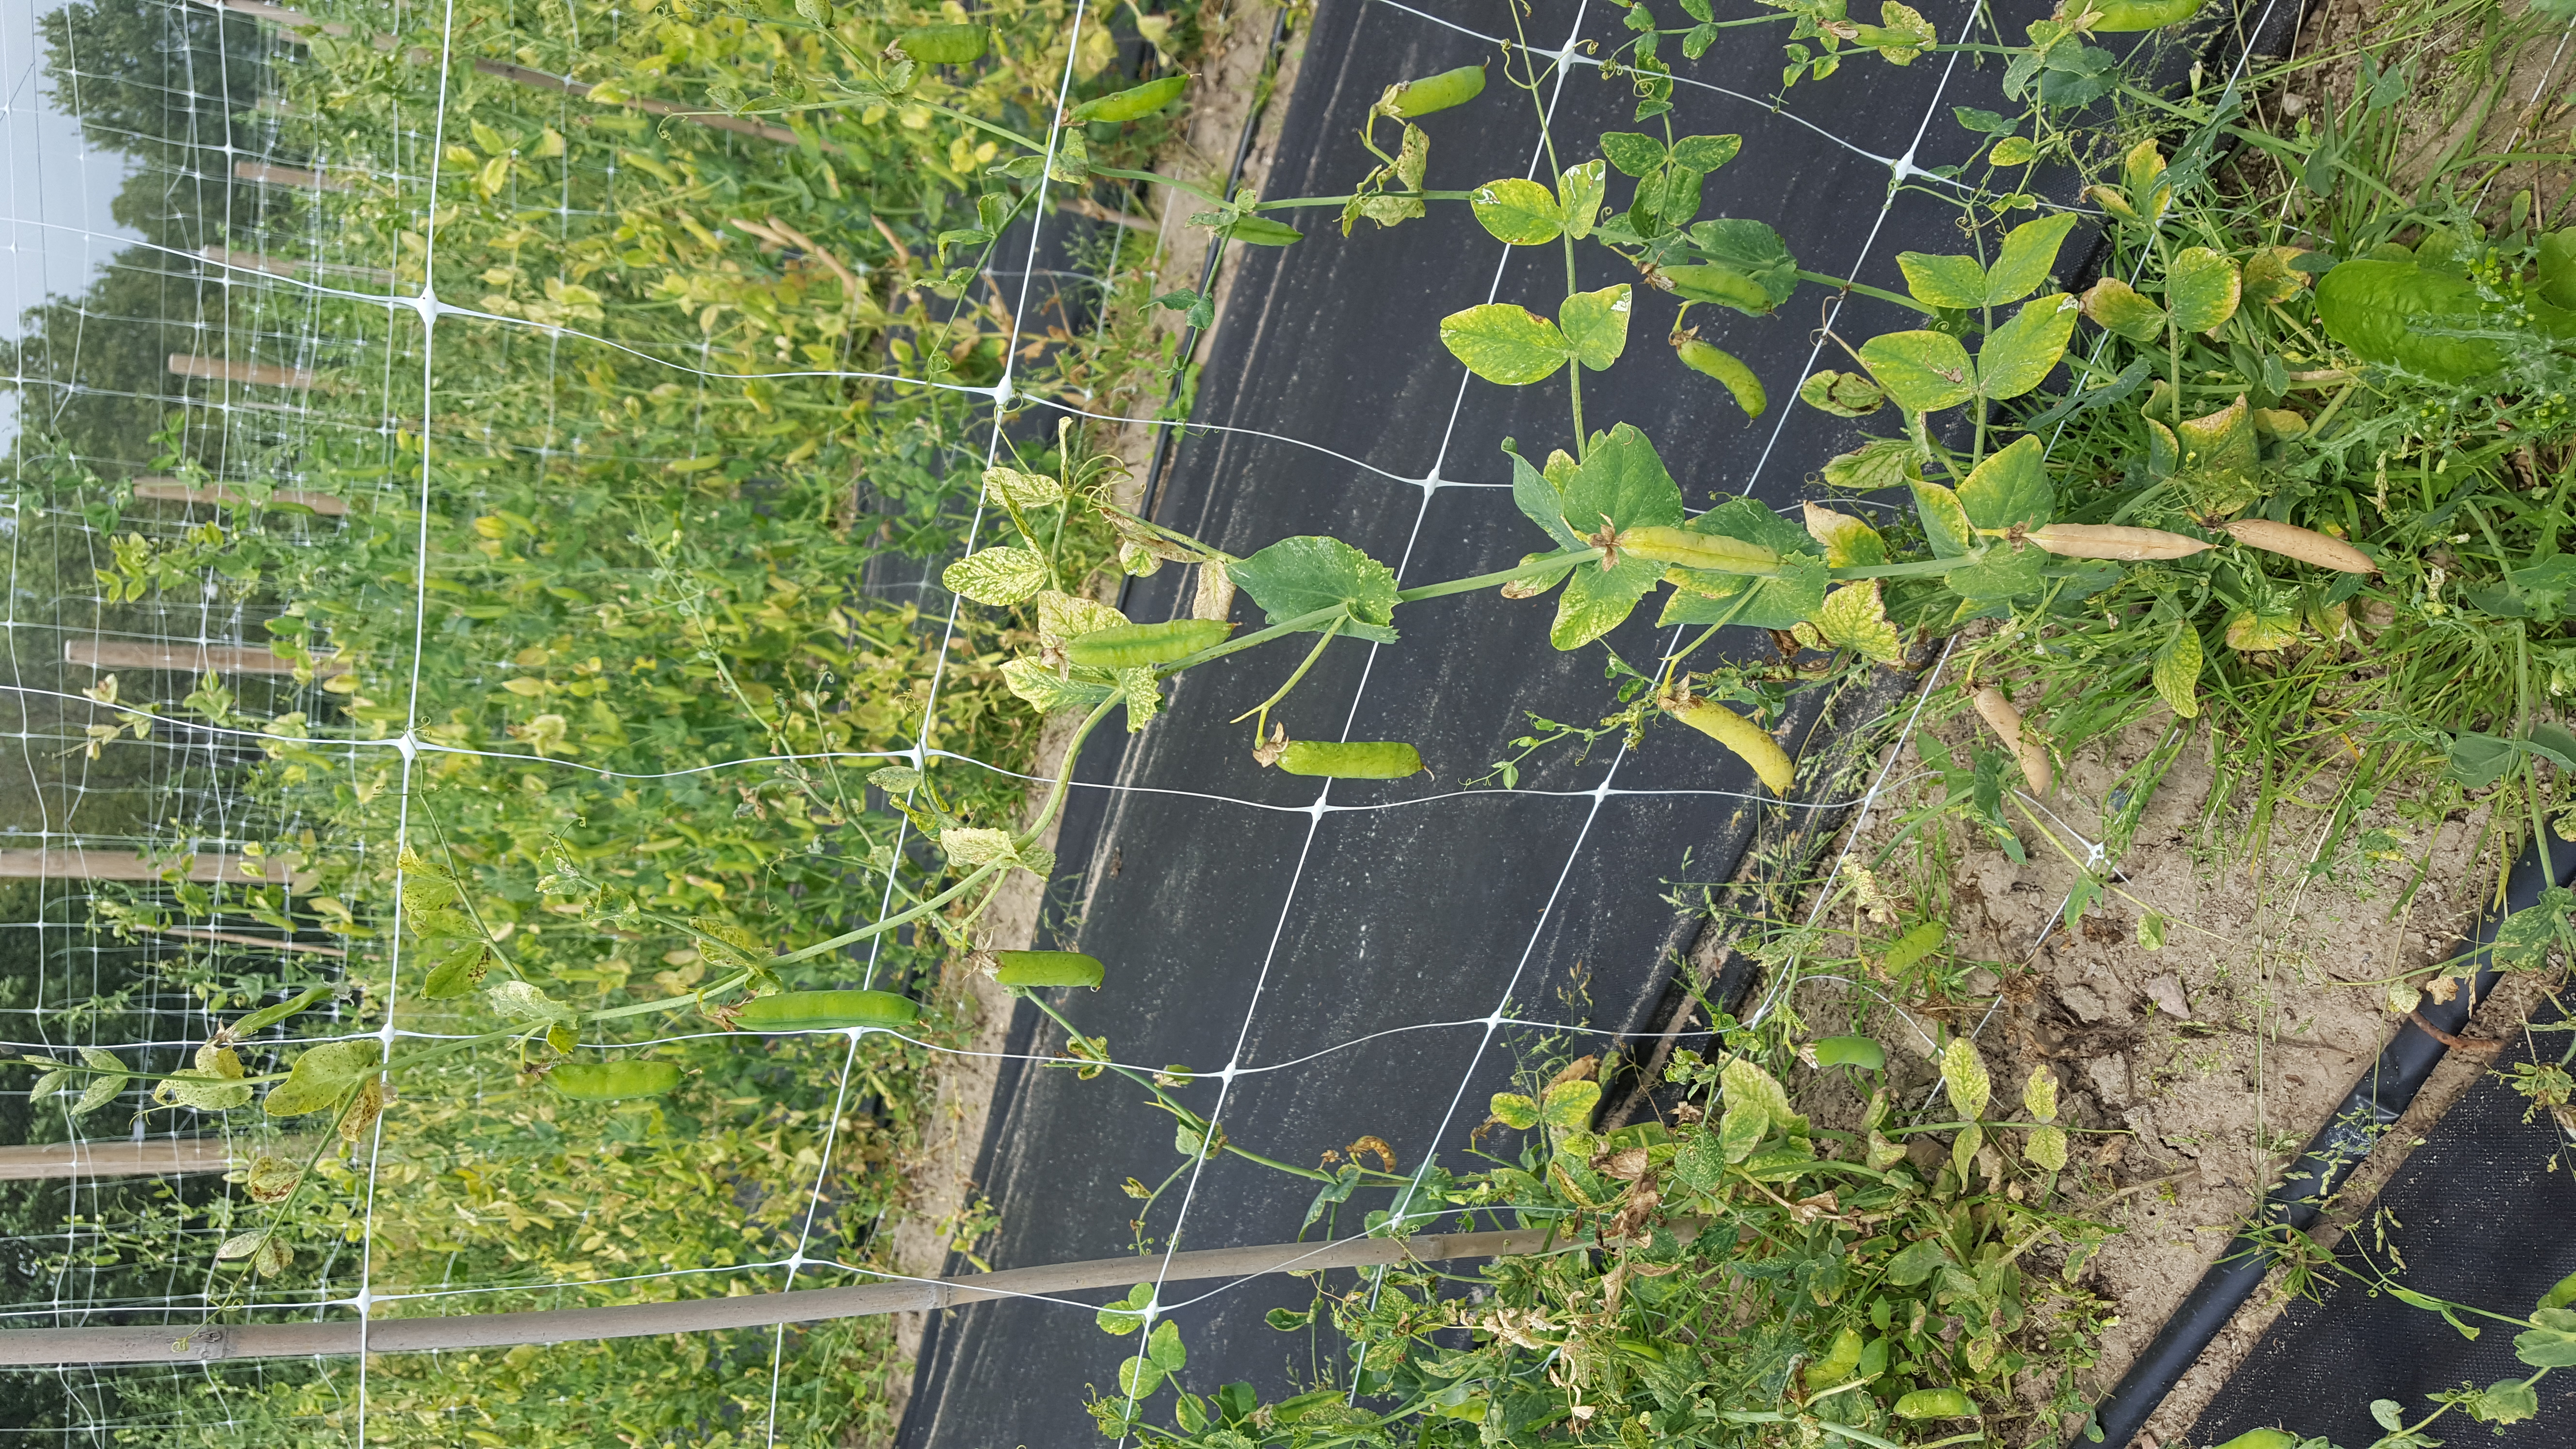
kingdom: Plantae
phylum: Tracheophyta
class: Magnoliopsida
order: Fabales
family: Fabaceae
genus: Lathyrus
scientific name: Lathyrus oleraceus
